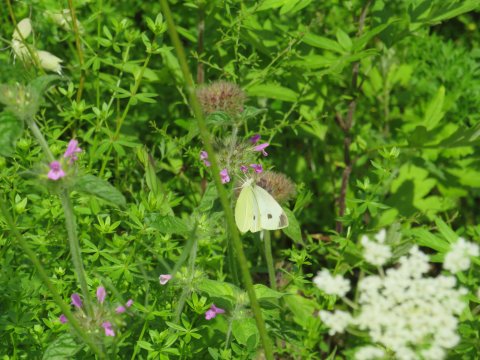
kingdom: Animalia
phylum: Arthropoda
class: Insecta
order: Lepidoptera
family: Pieridae
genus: Pieris
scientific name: Pieris rapae
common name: Cabbage White
